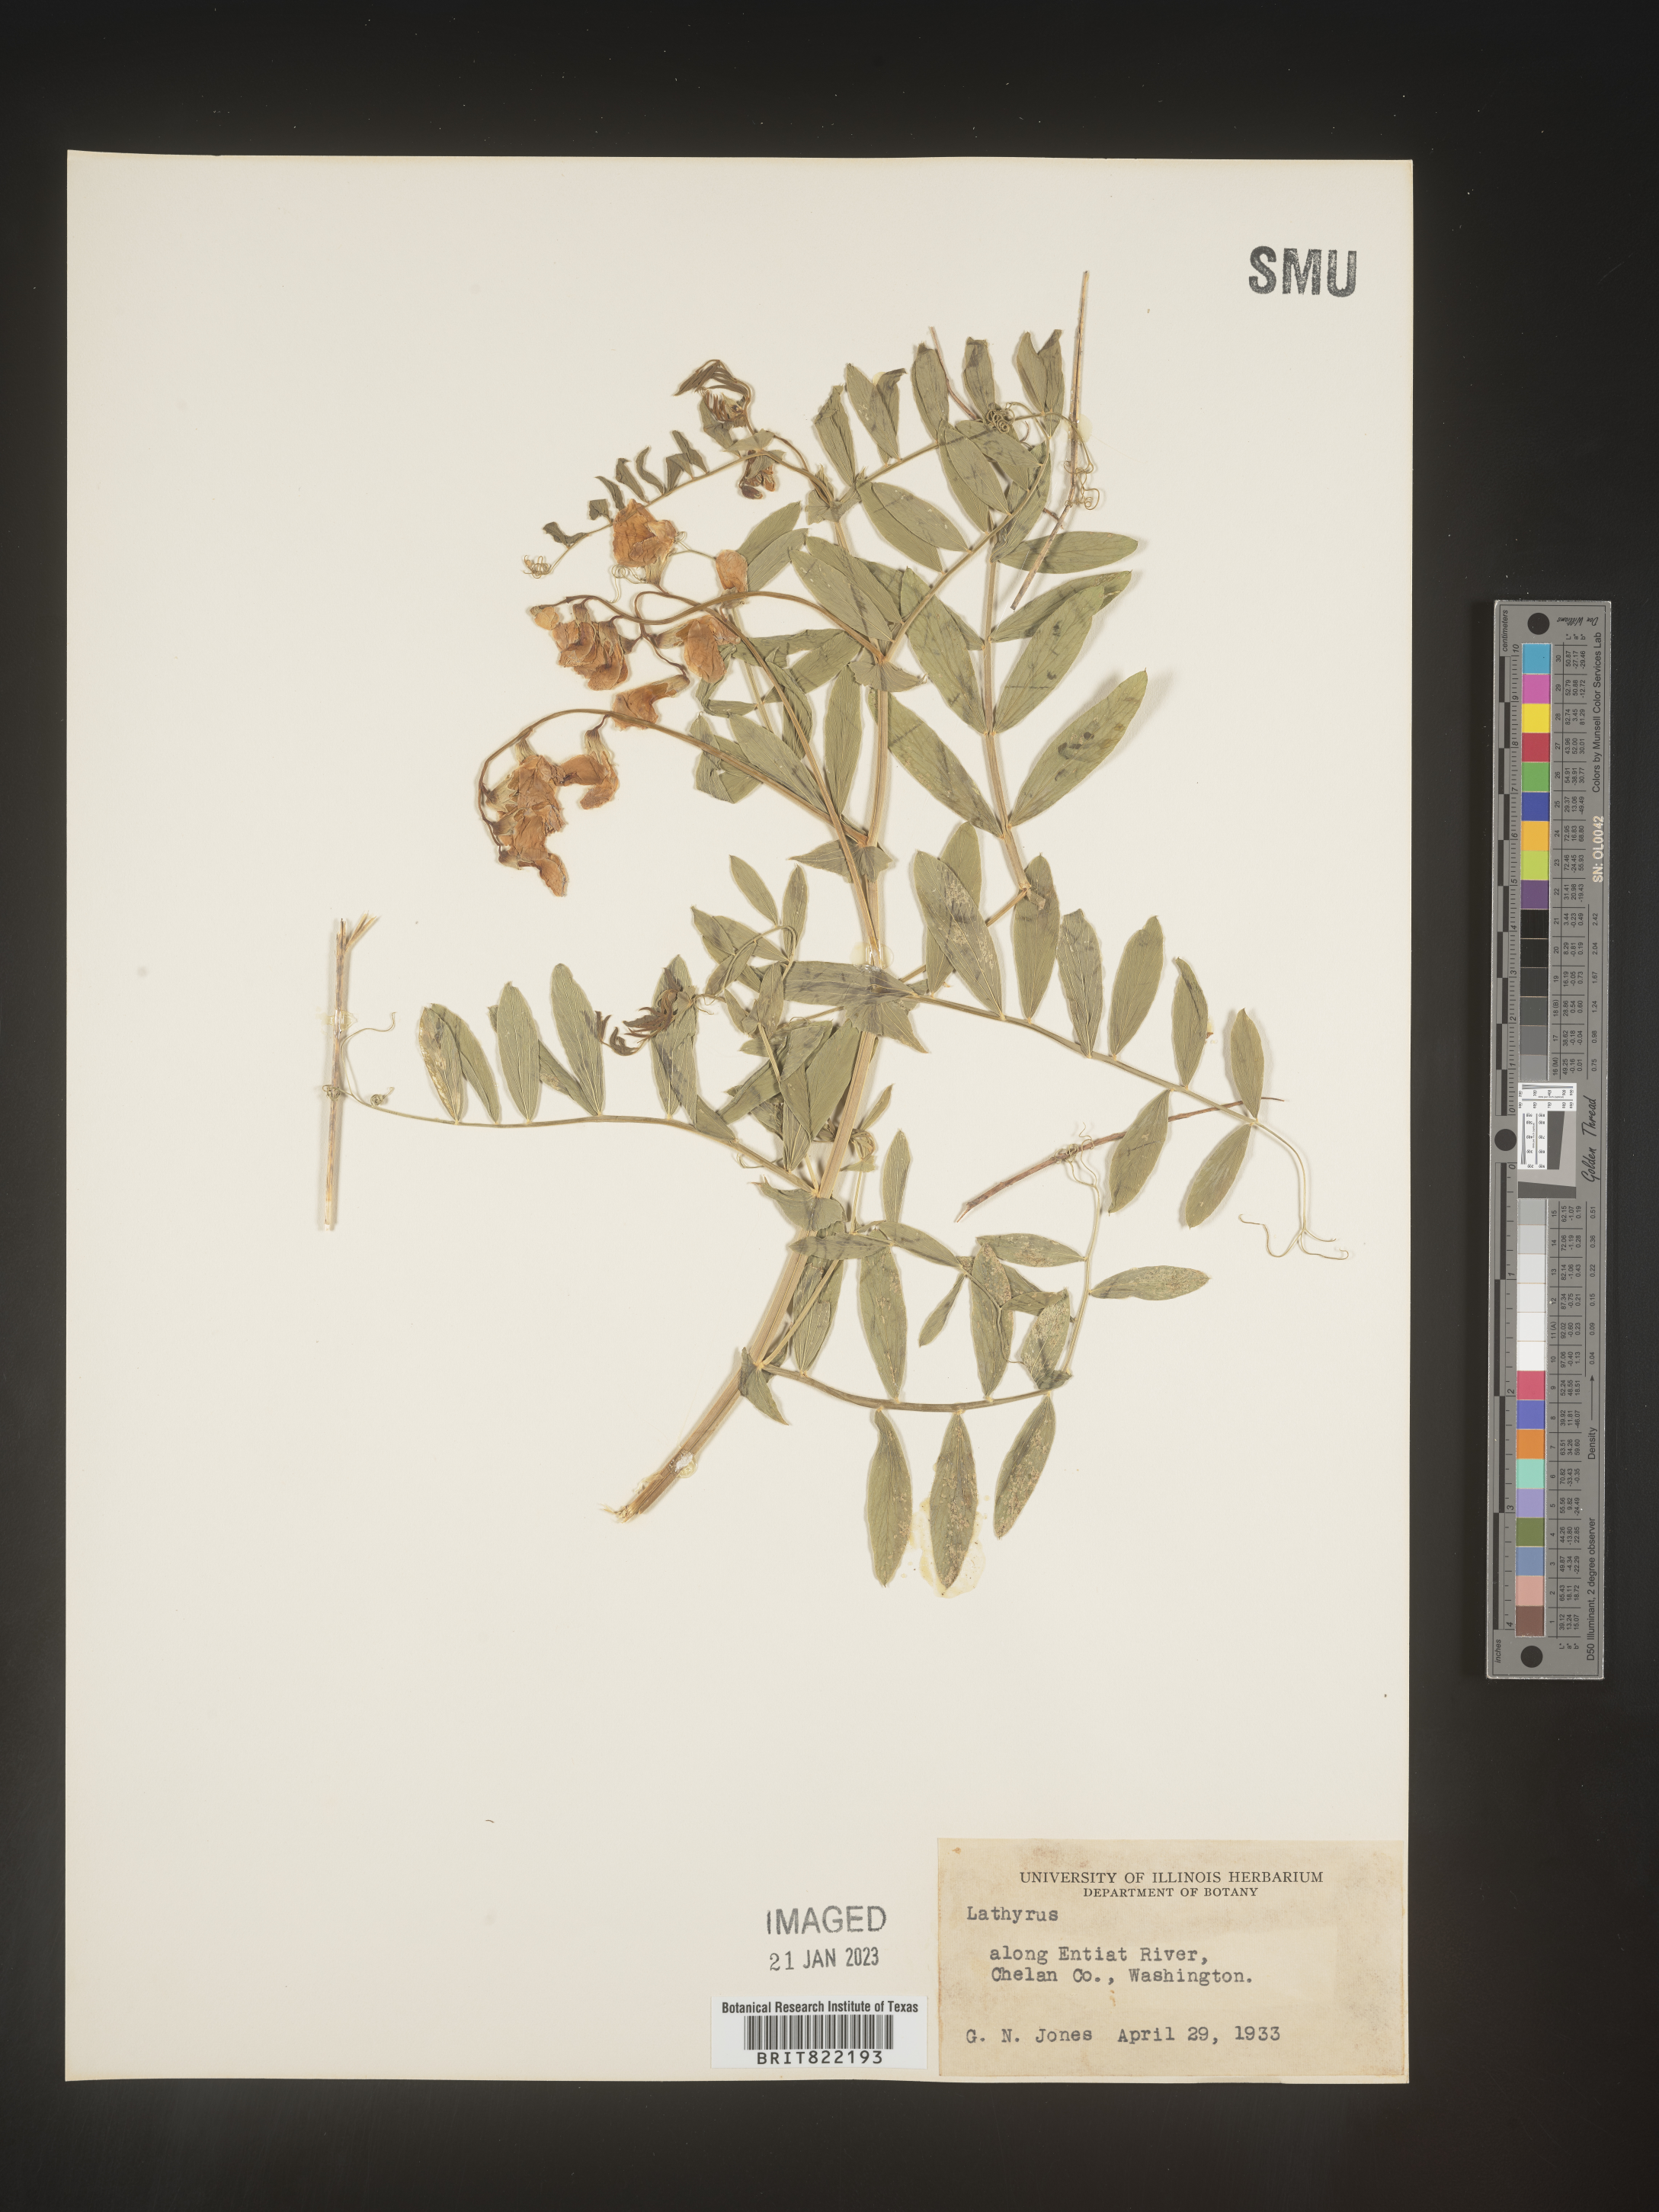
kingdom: Plantae
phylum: Tracheophyta
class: Magnoliopsida
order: Fabales
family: Fabaceae
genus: Lathyrus
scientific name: Lathyrus
